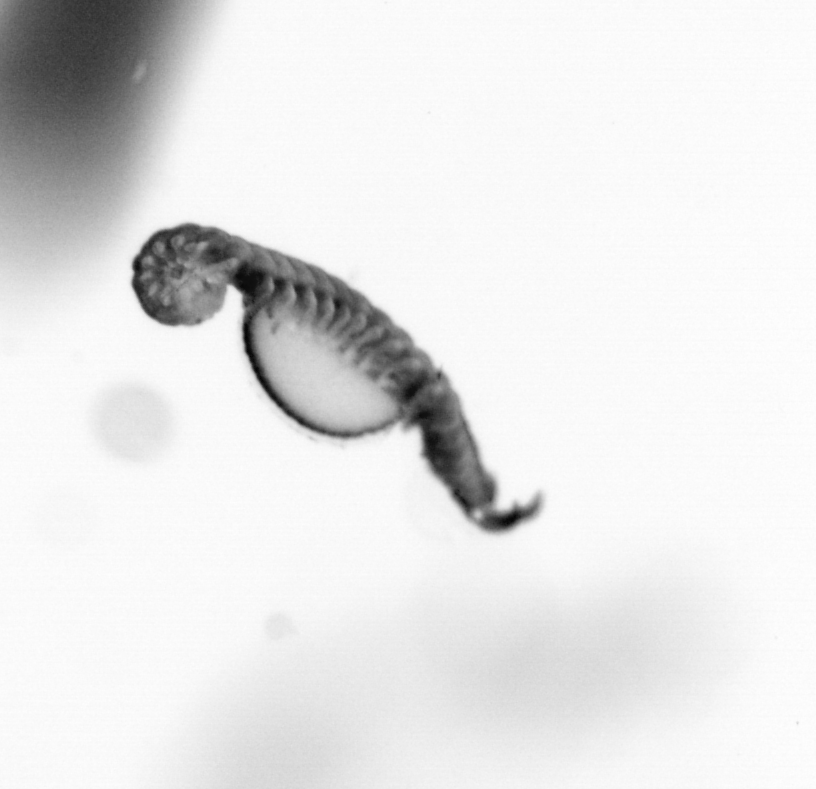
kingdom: Animalia
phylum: Annelida
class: Polychaeta
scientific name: Polychaeta
